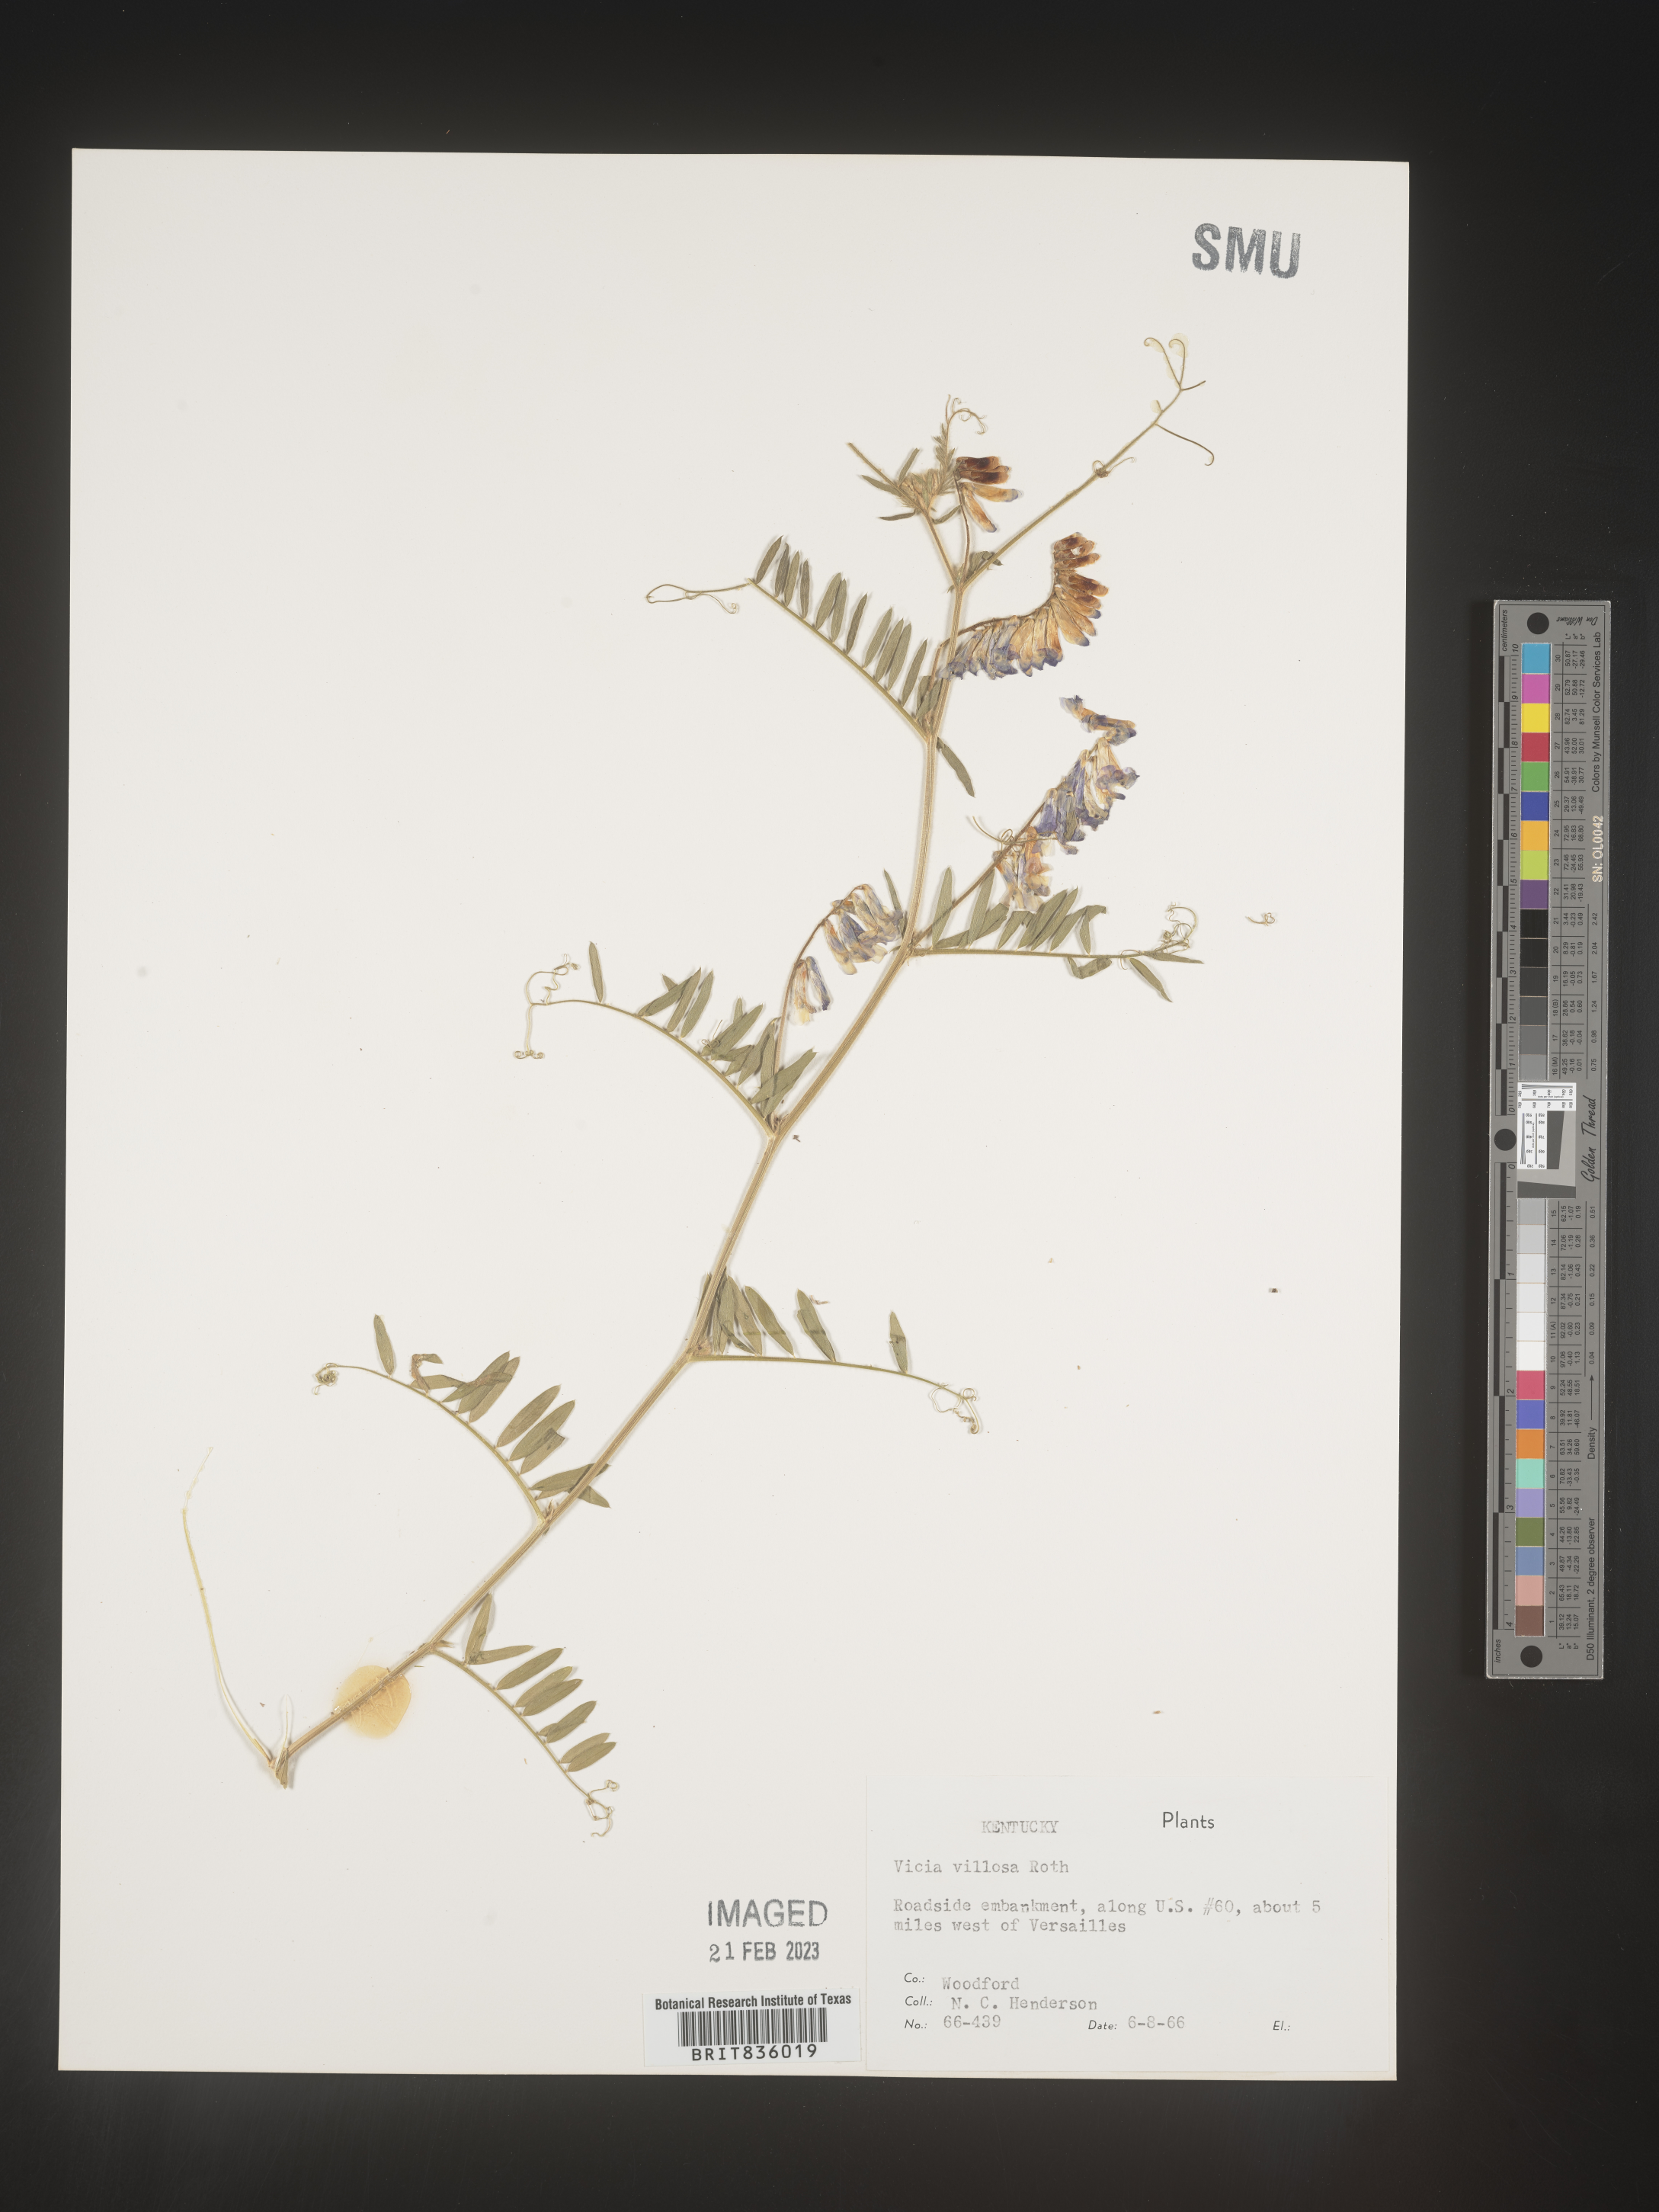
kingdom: Plantae
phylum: Tracheophyta
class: Magnoliopsida
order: Fabales
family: Fabaceae
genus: Vicia
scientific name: Vicia villosa
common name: Fodder vetch
